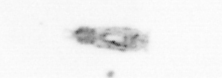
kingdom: Animalia
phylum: Arthropoda
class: Copepoda
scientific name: Copepoda
